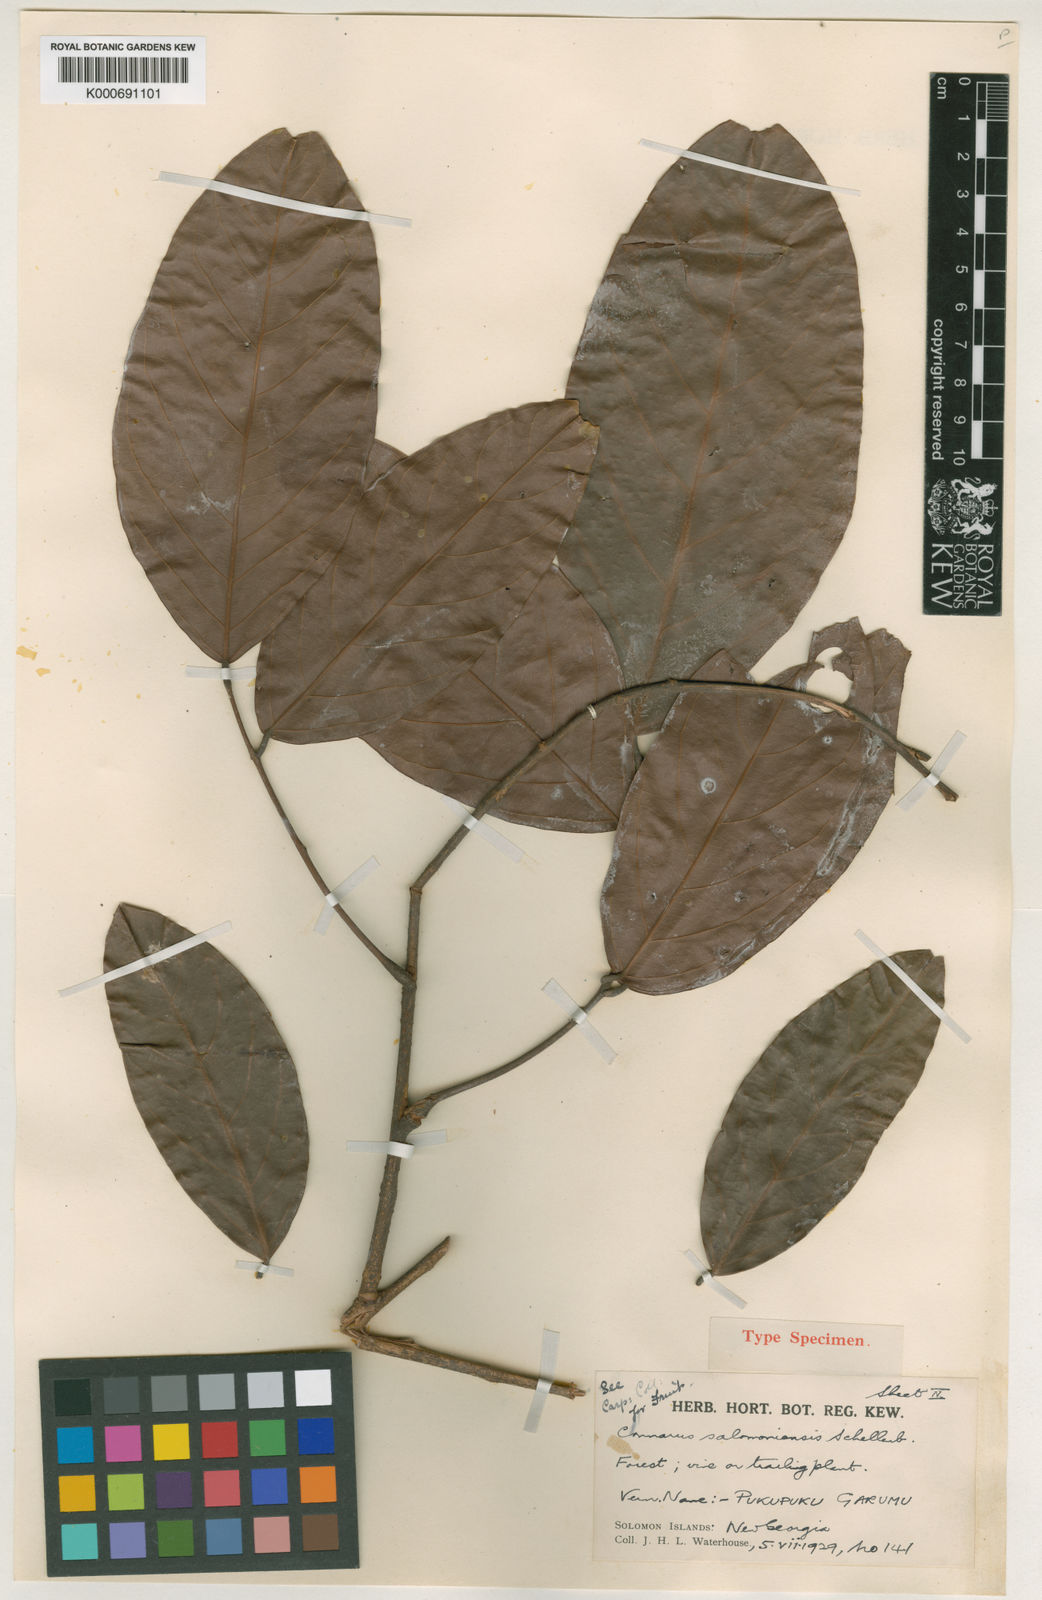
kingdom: Plantae
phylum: Tracheophyta
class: Magnoliopsida
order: Oxalidales
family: Connaraceae
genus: Connarus
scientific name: Connarus salomoniensis
